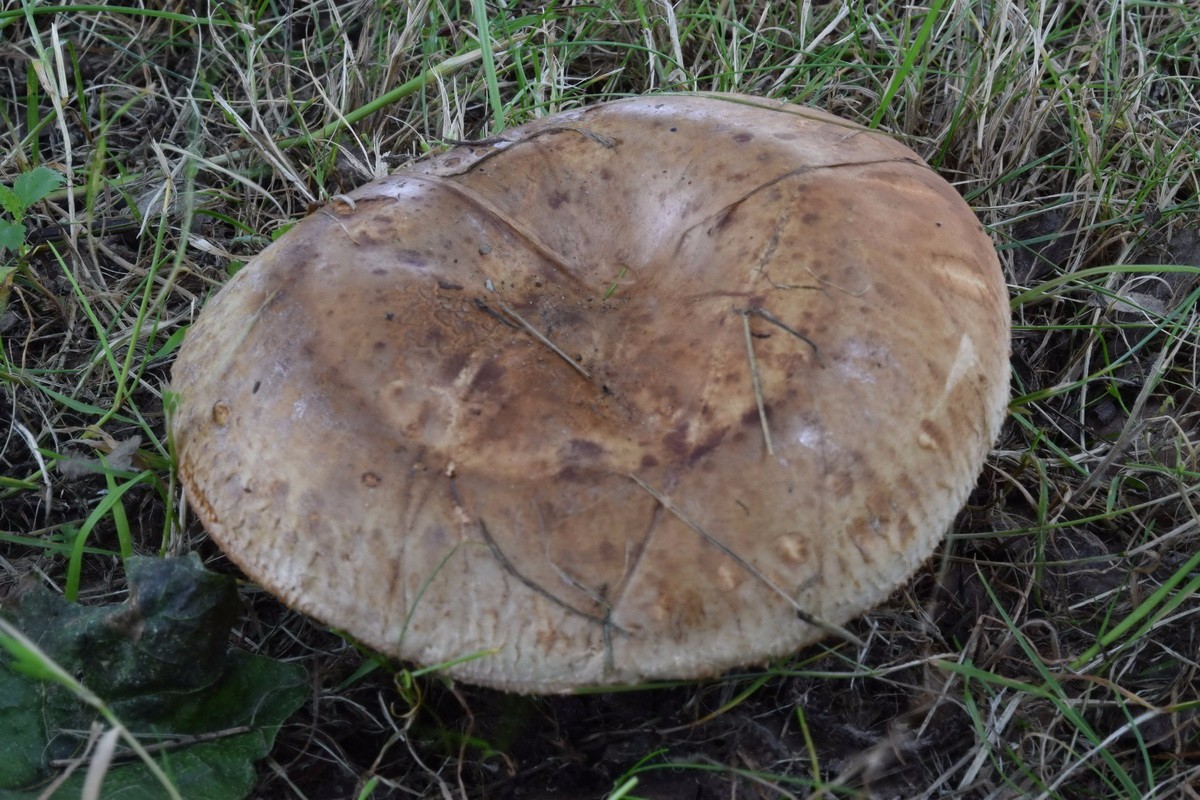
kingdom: Fungi
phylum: Basidiomycota
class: Agaricomycetes
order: Boletales
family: Paxillaceae
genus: Paxillus
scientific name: Paxillus ammoniavirescens
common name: olivensporet netbladhat
